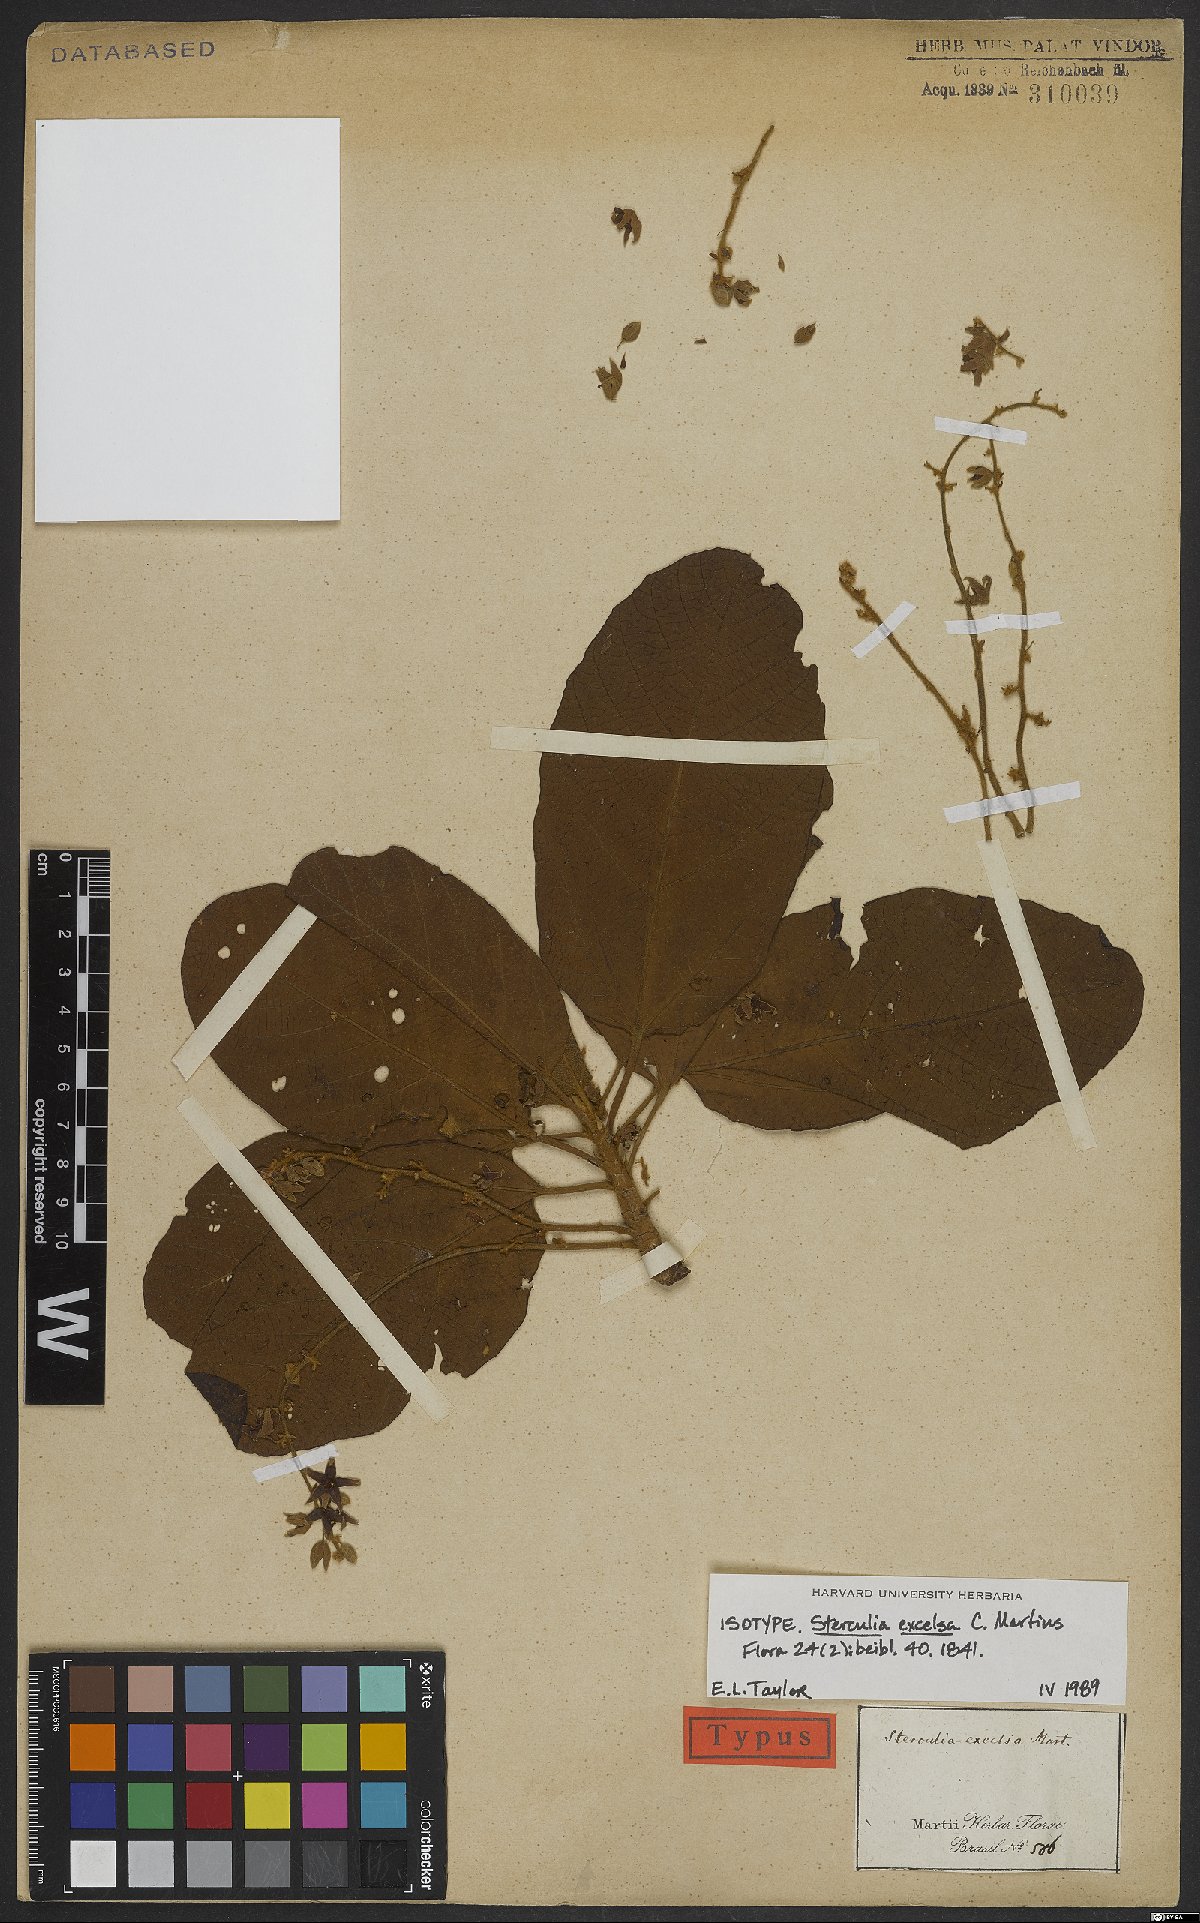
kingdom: Plantae
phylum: Tracheophyta
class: Magnoliopsida
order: Malvales
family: Malvaceae
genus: Sterculia
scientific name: Sterculia excelsa
